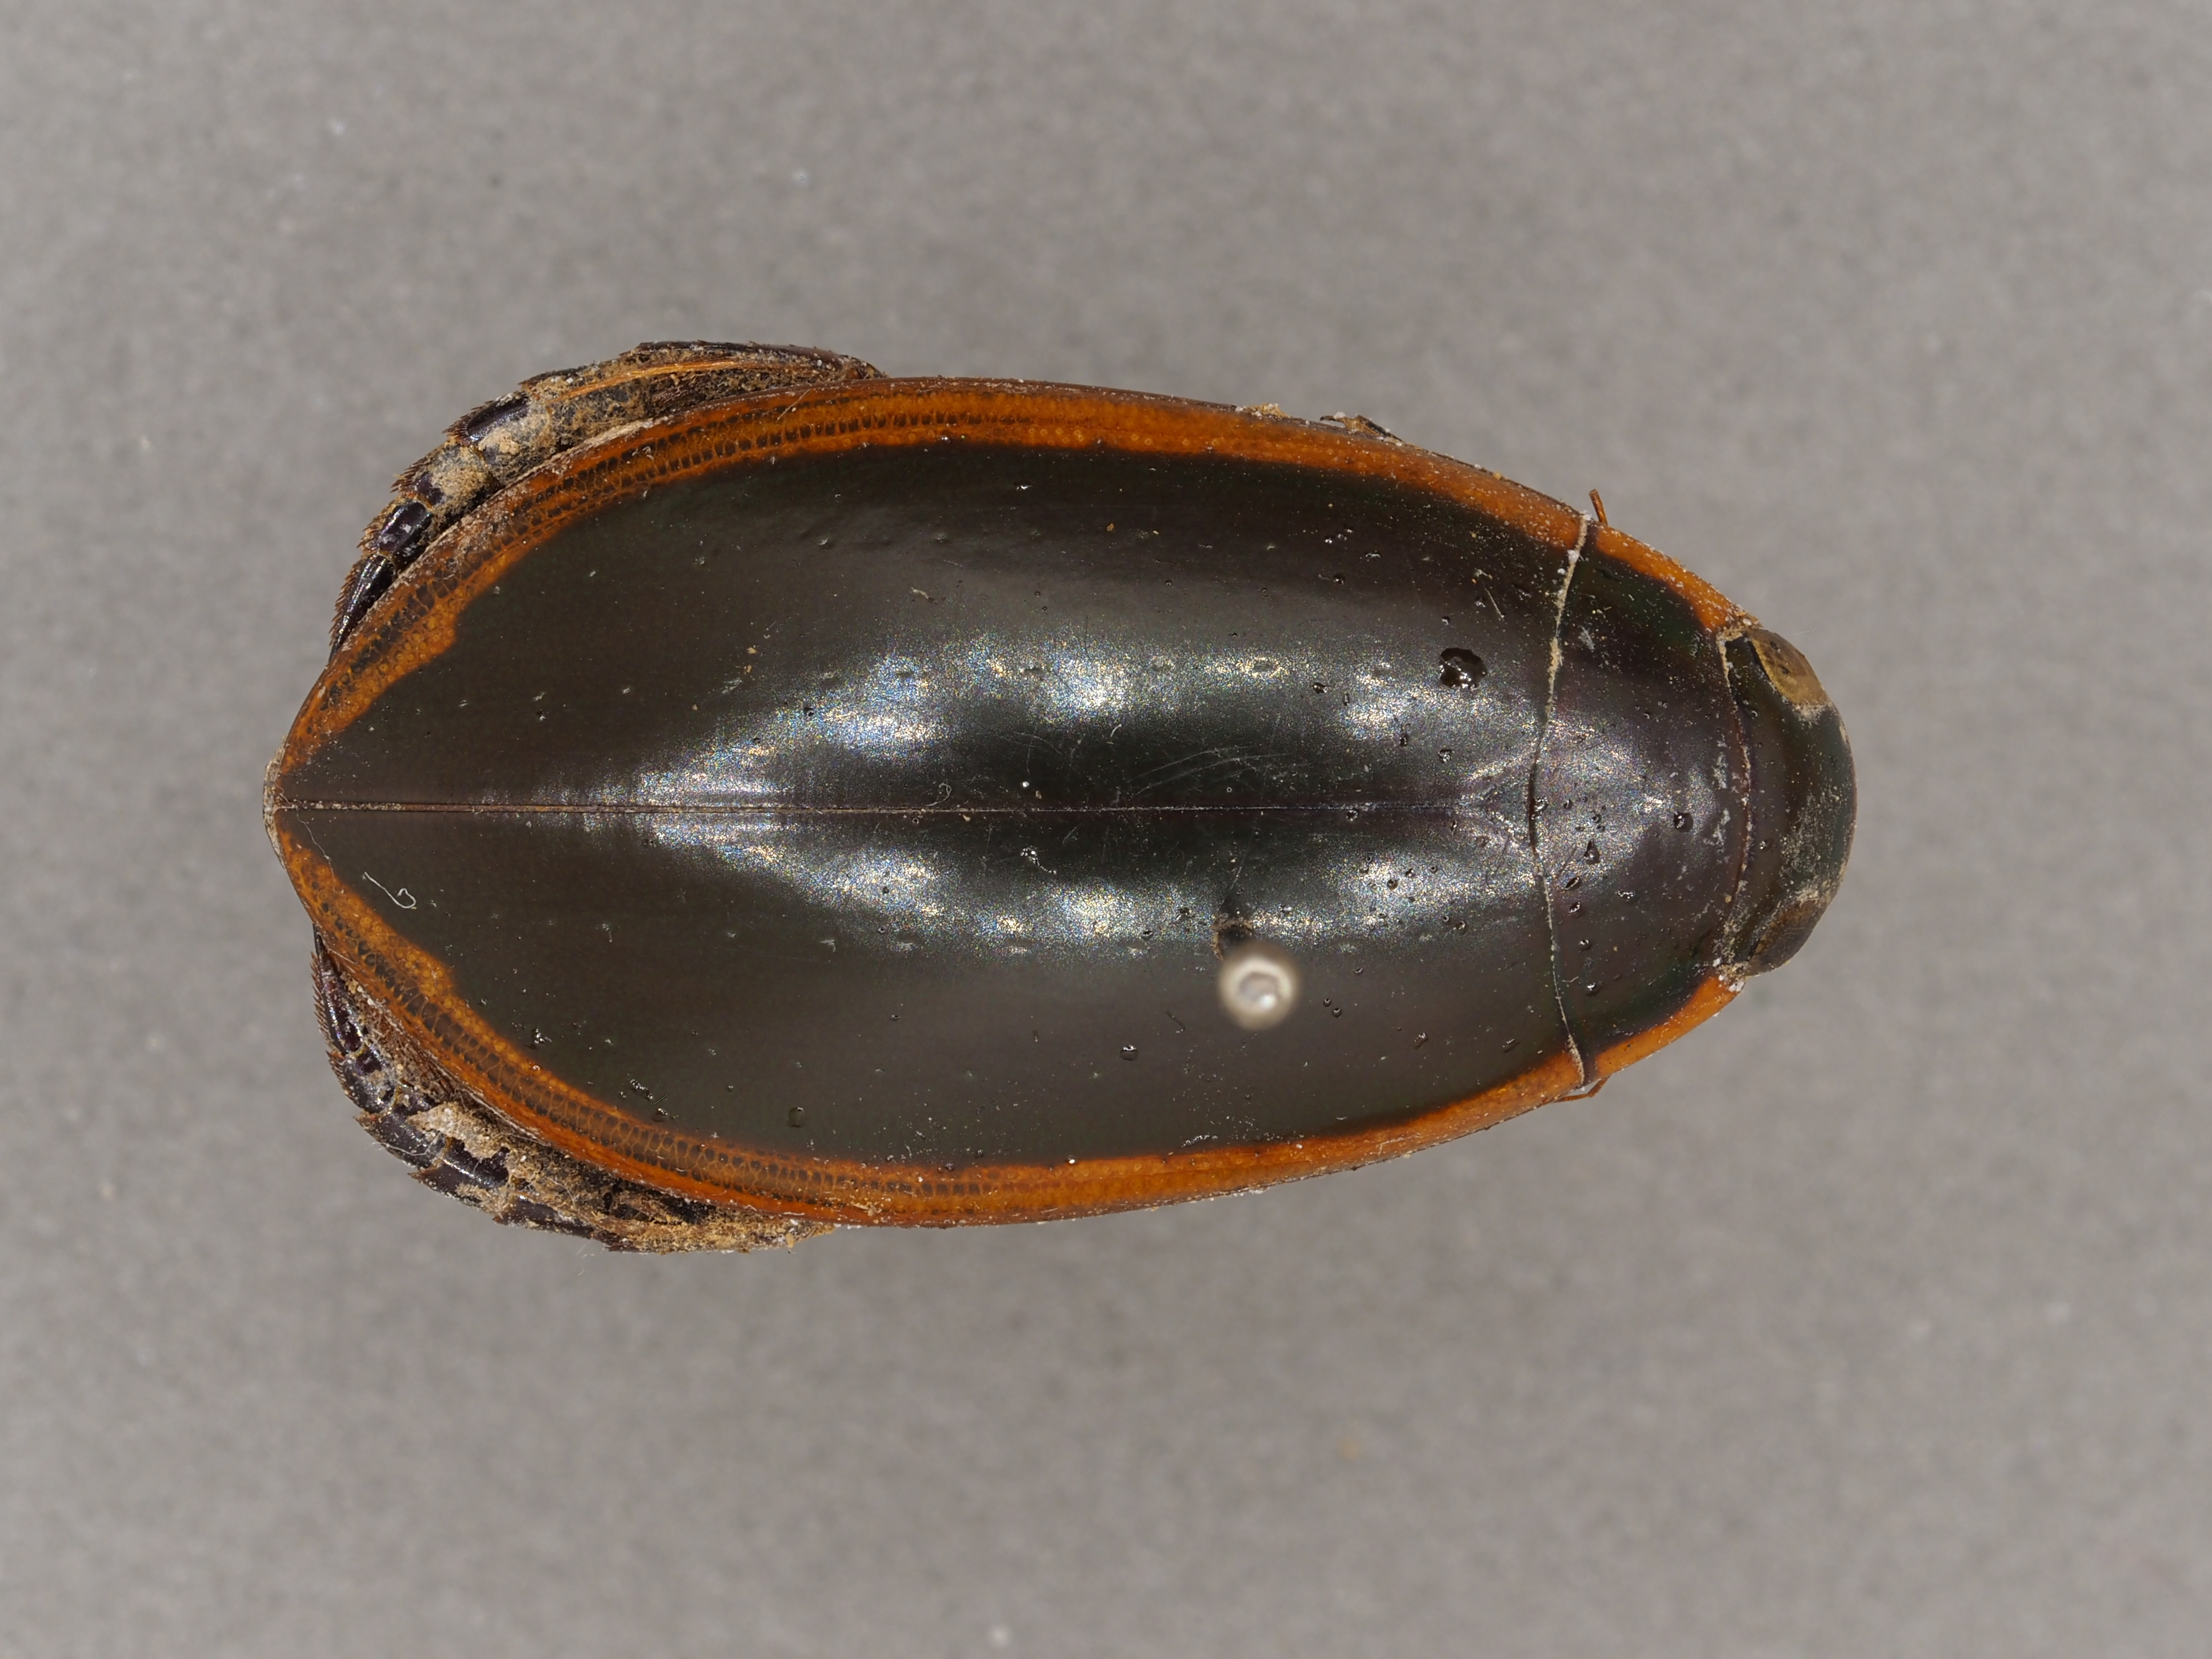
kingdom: Animalia
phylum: Arthropoda
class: Insecta
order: Coleoptera
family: Dytiscidae
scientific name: Dytiscidae
